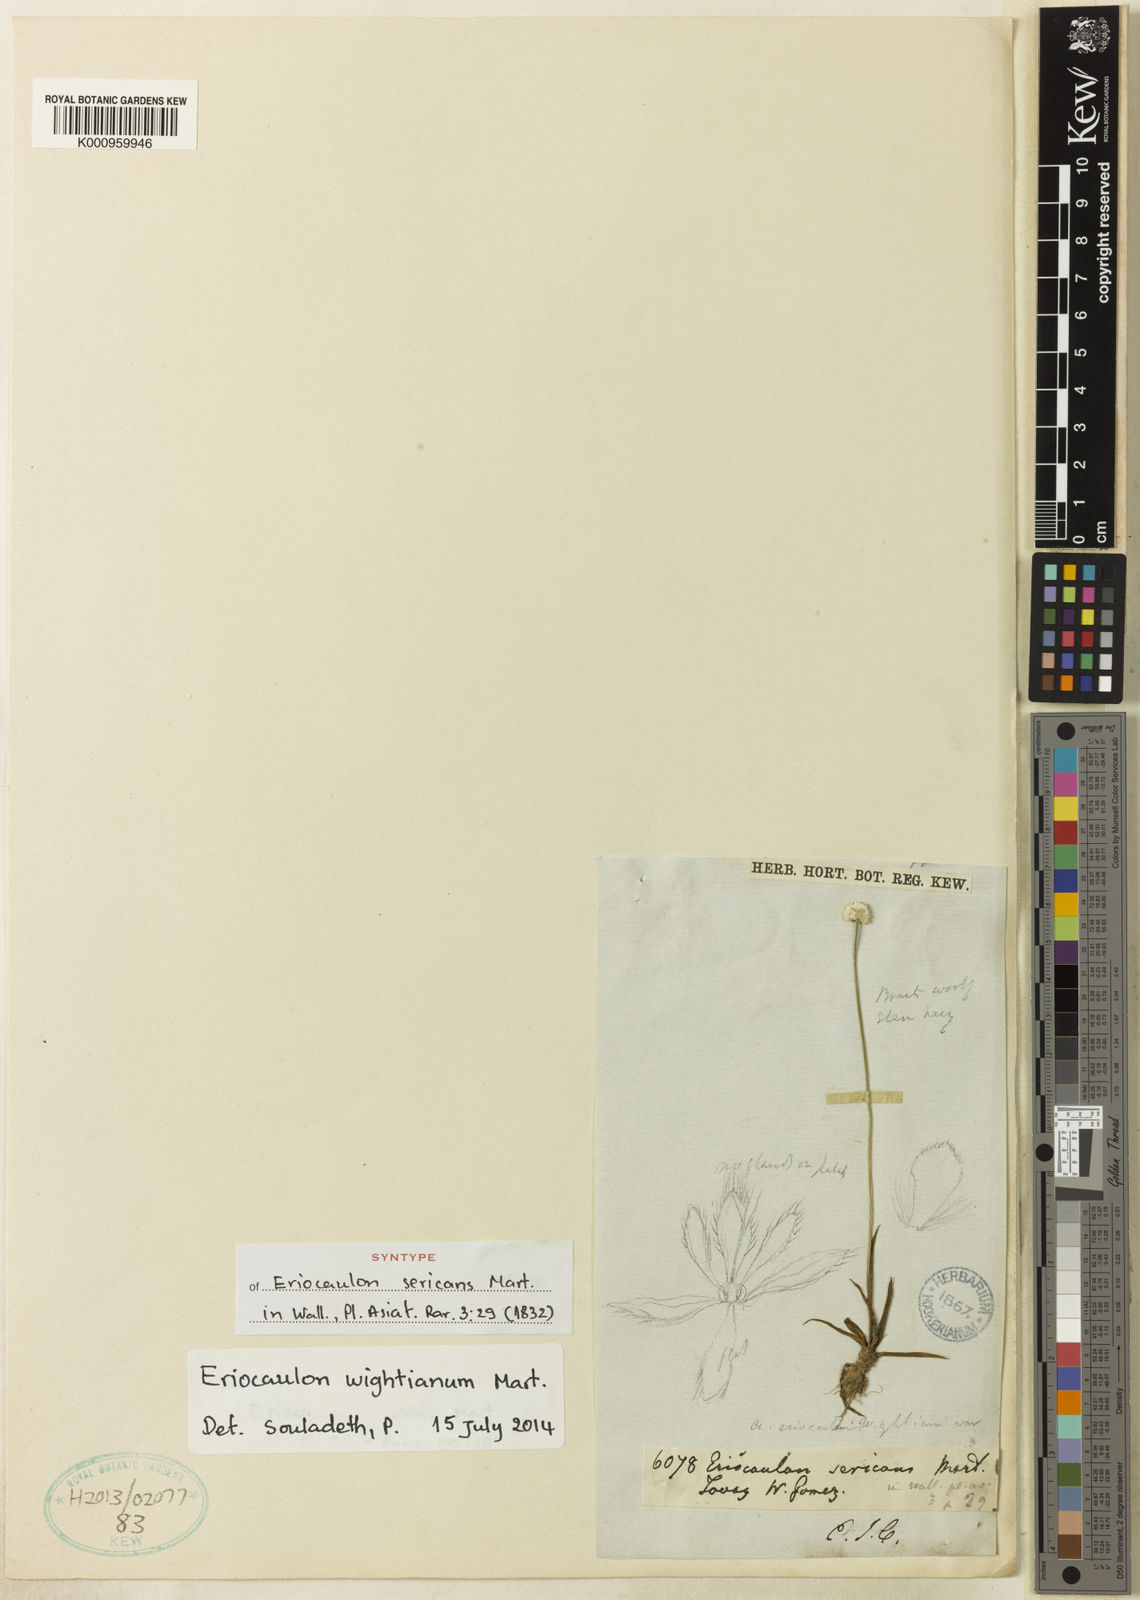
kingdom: Plantae
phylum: Tracheophyta
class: Liliopsida
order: Poales
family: Eriocaulaceae
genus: Eriocaulon
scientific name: Eriocaulon wightianum
